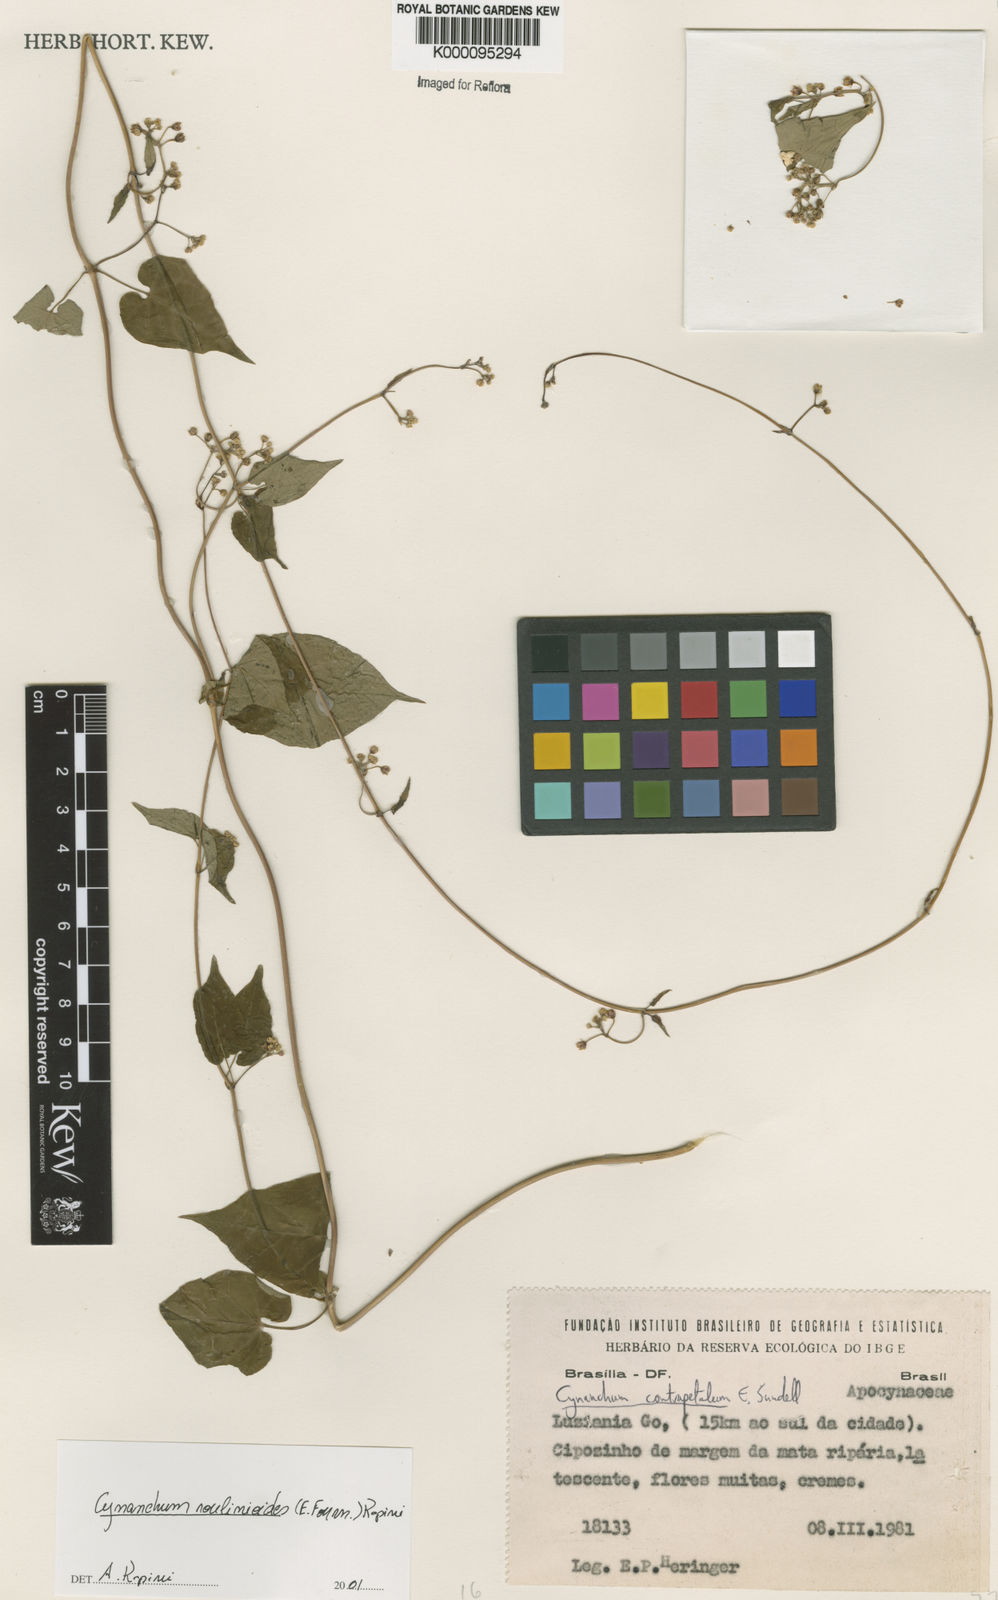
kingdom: Plantae
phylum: Tracheophyta
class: Magnoliopsida
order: Gentianales
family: Apocynaceae
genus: Cynanchum
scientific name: Cynanchum roulinioides
